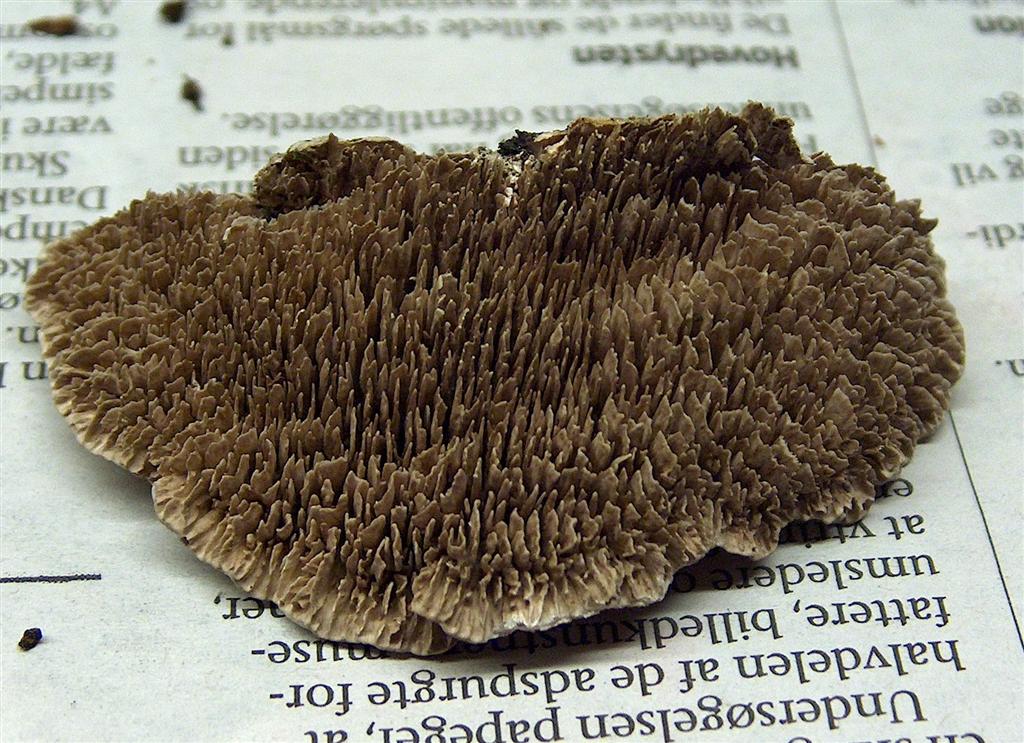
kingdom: Fungi
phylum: Basidiomycota
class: Agaricomycetes
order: Polyporales
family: Polyporaceae
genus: Lenzites
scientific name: Lenzites betulinus
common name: birke-læderporesvamp
